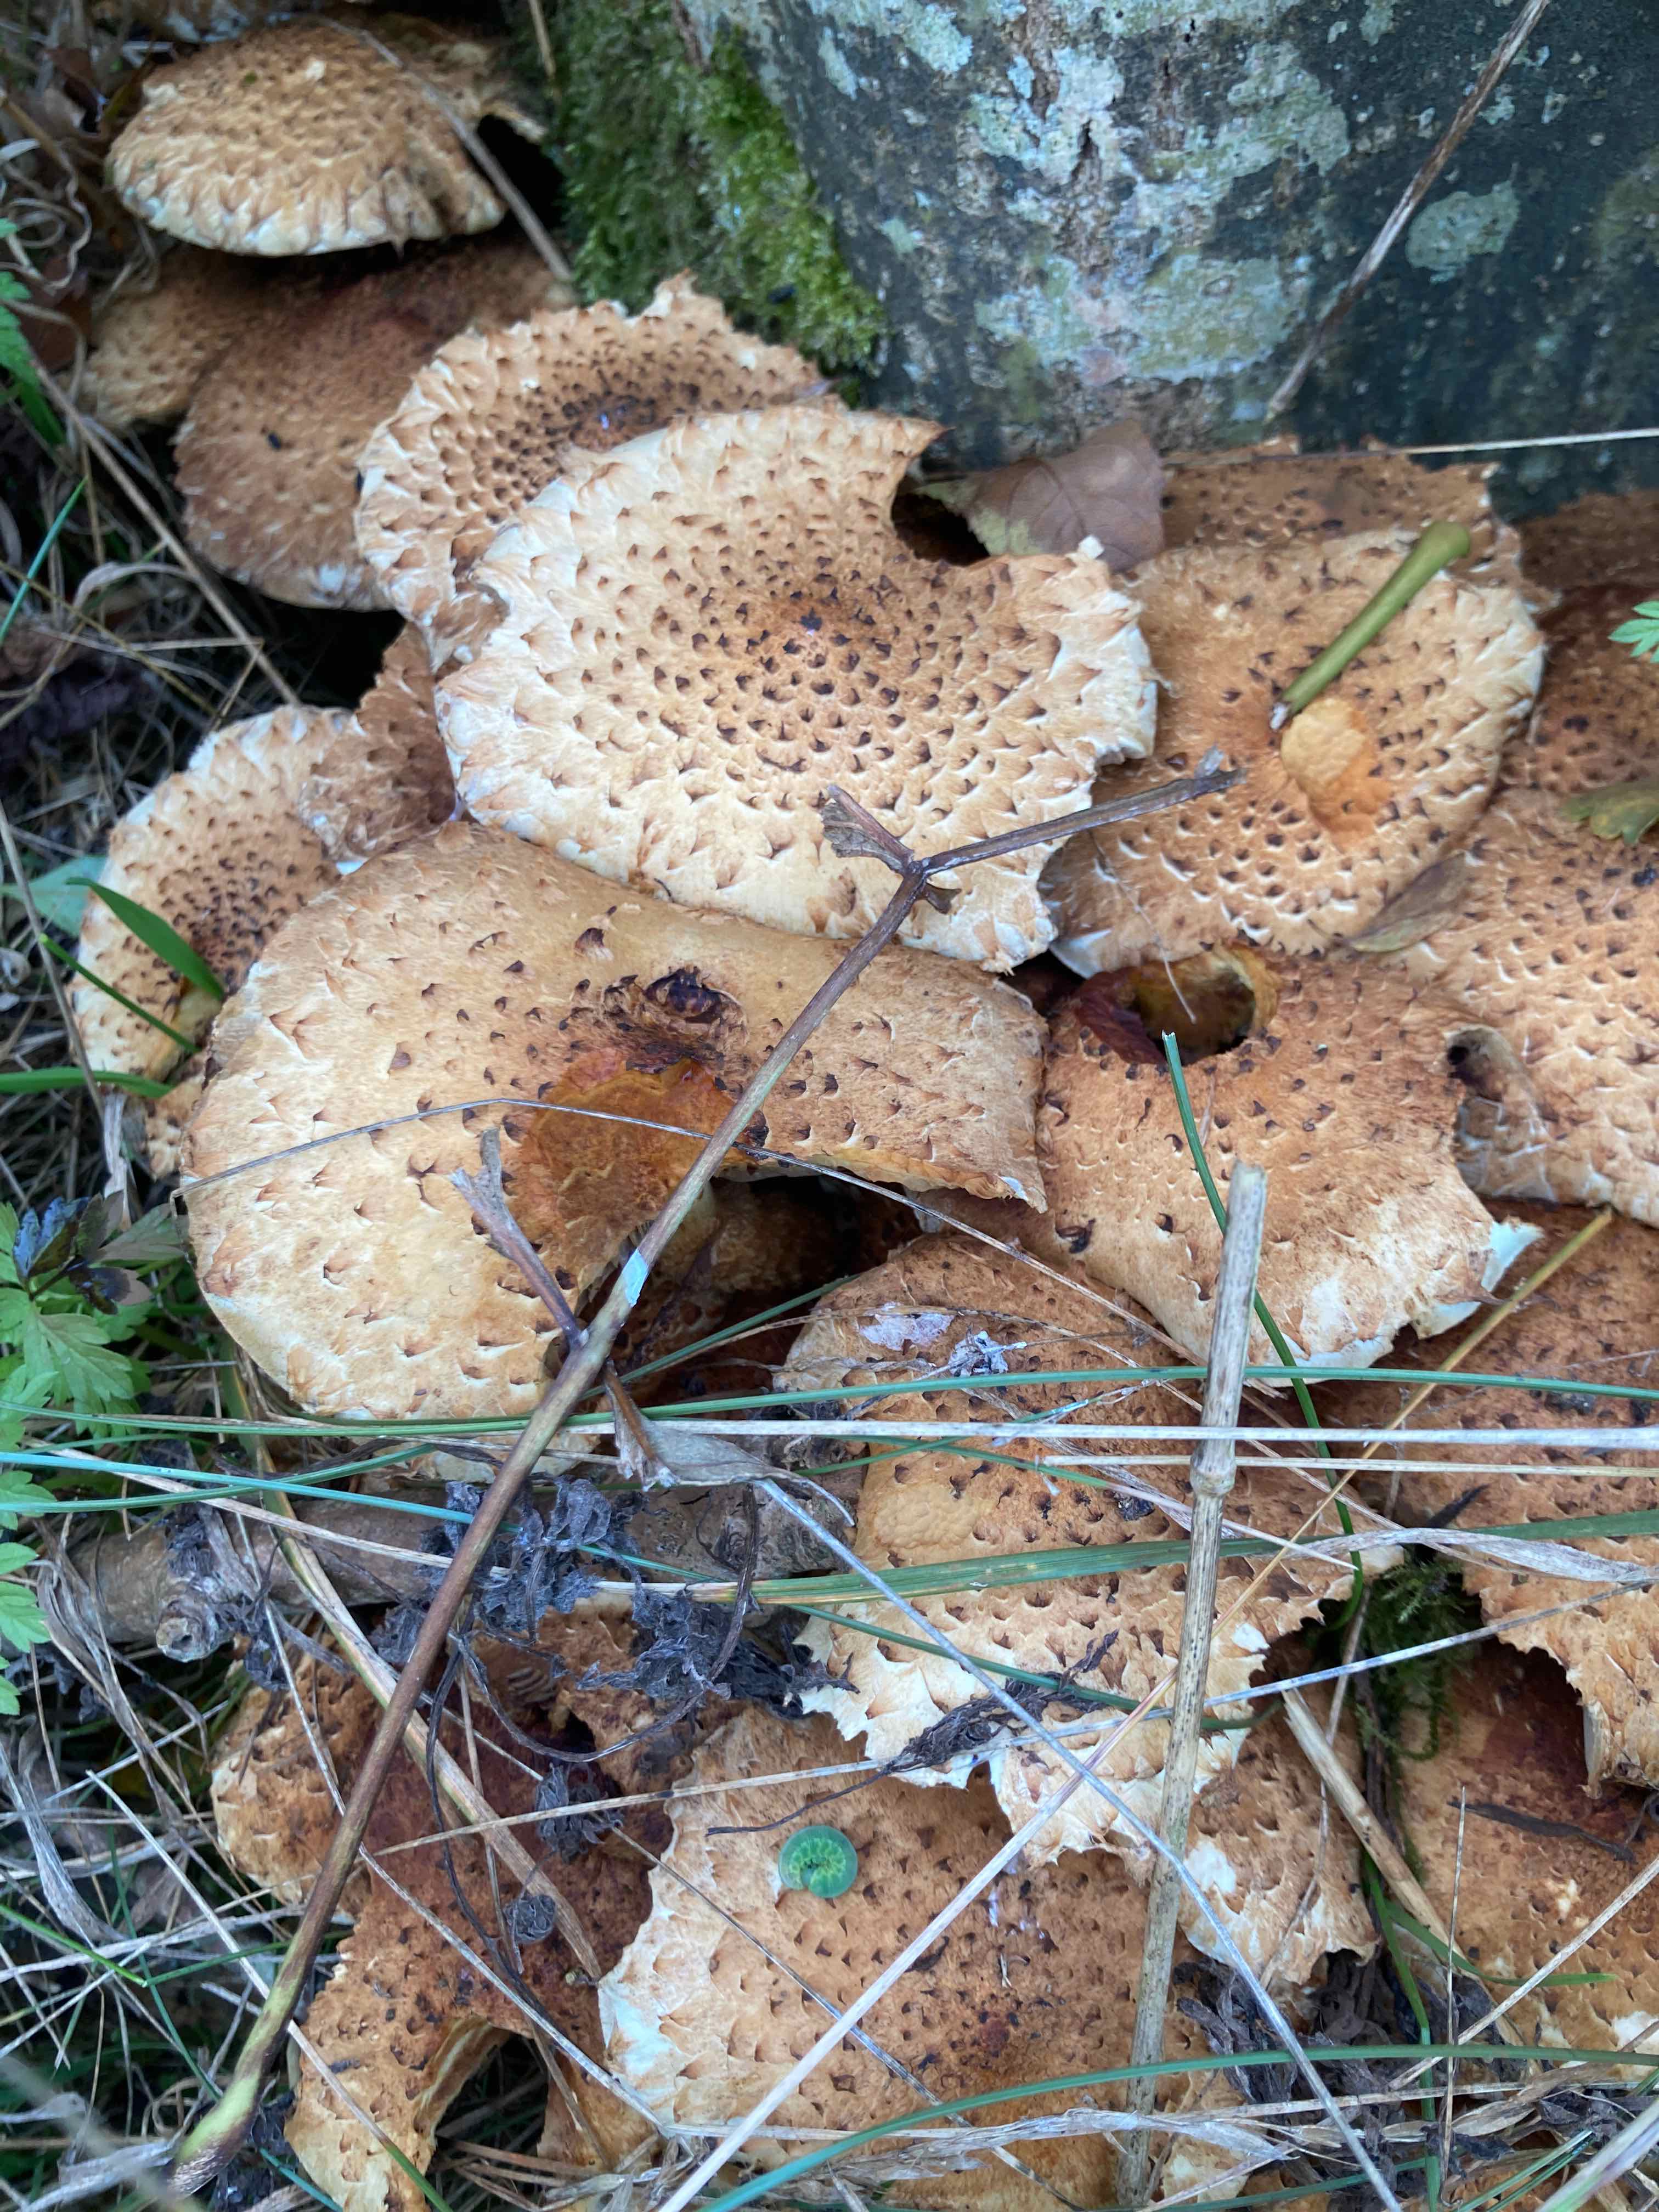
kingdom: Fungi
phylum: Basidiomycota
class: Agaricomycetes
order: Agaricales
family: Strophariaceae
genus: Pholiota
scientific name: Pholiota squarrosa
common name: krumskællet skælhat
